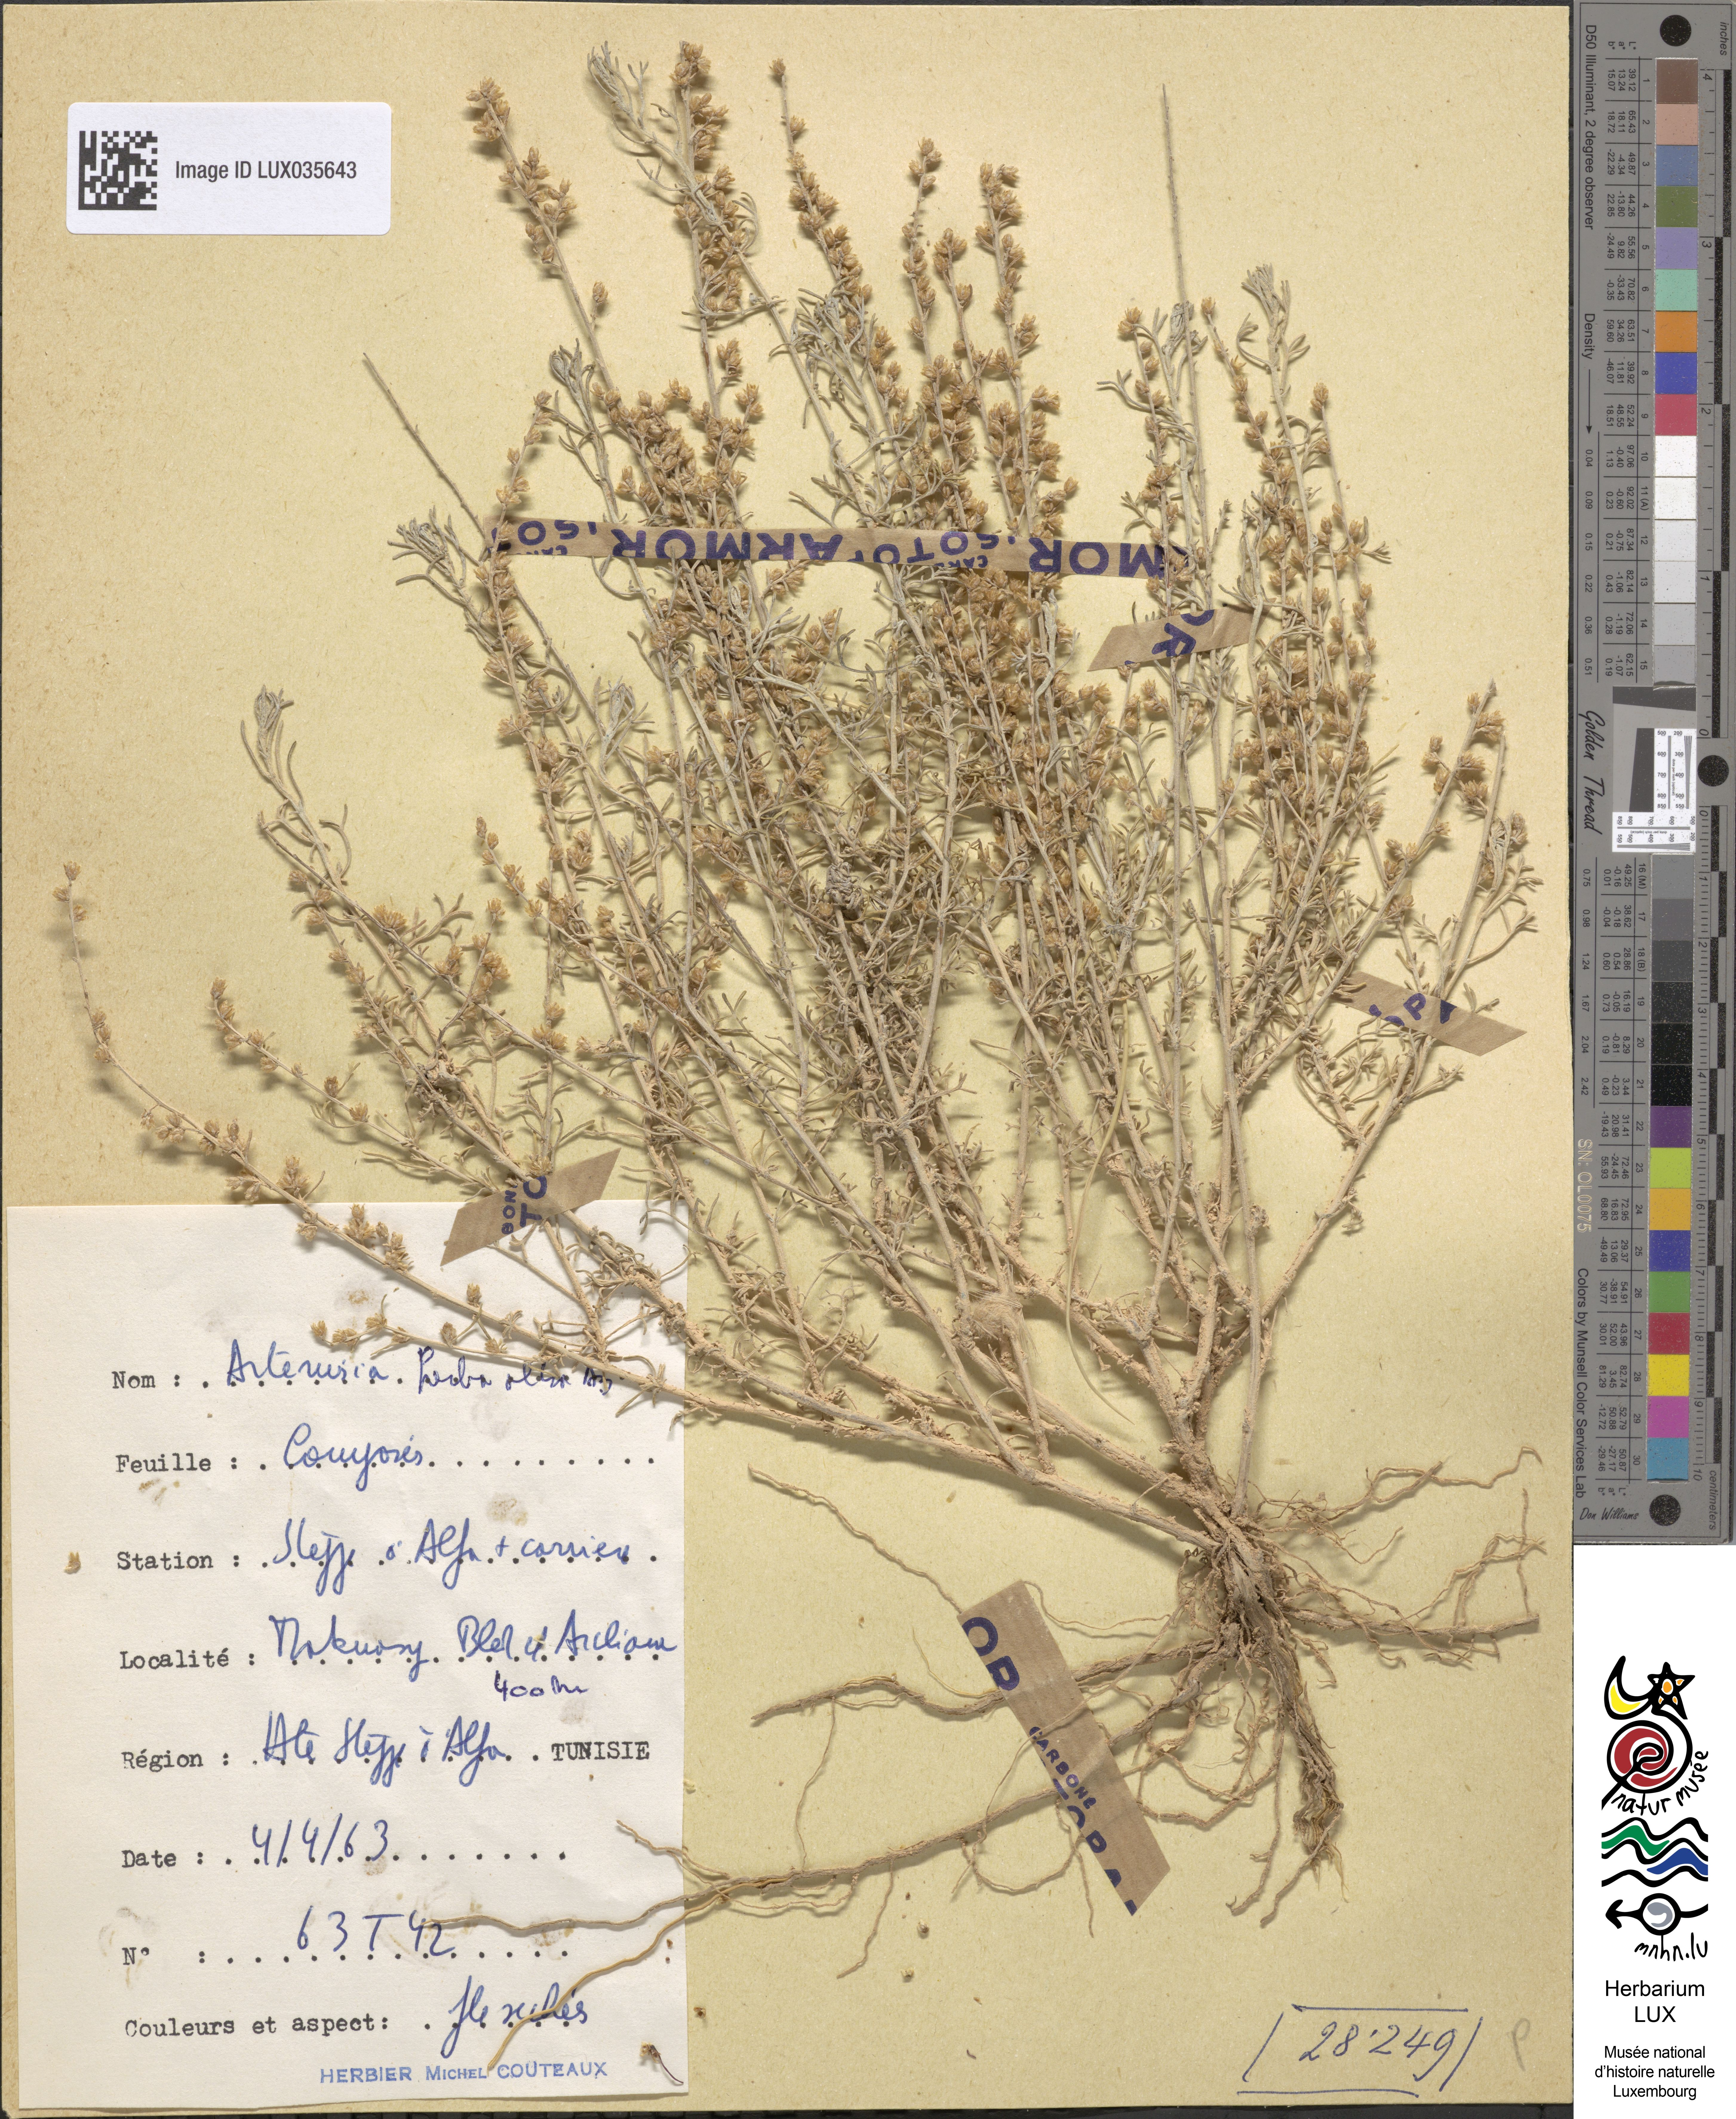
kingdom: Plantae
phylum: Tracheophyta
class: Magnoliopsida
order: Asterales
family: Asteraceae
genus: Artemisia
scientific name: Artemisia herba-alba
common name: White wormwood
